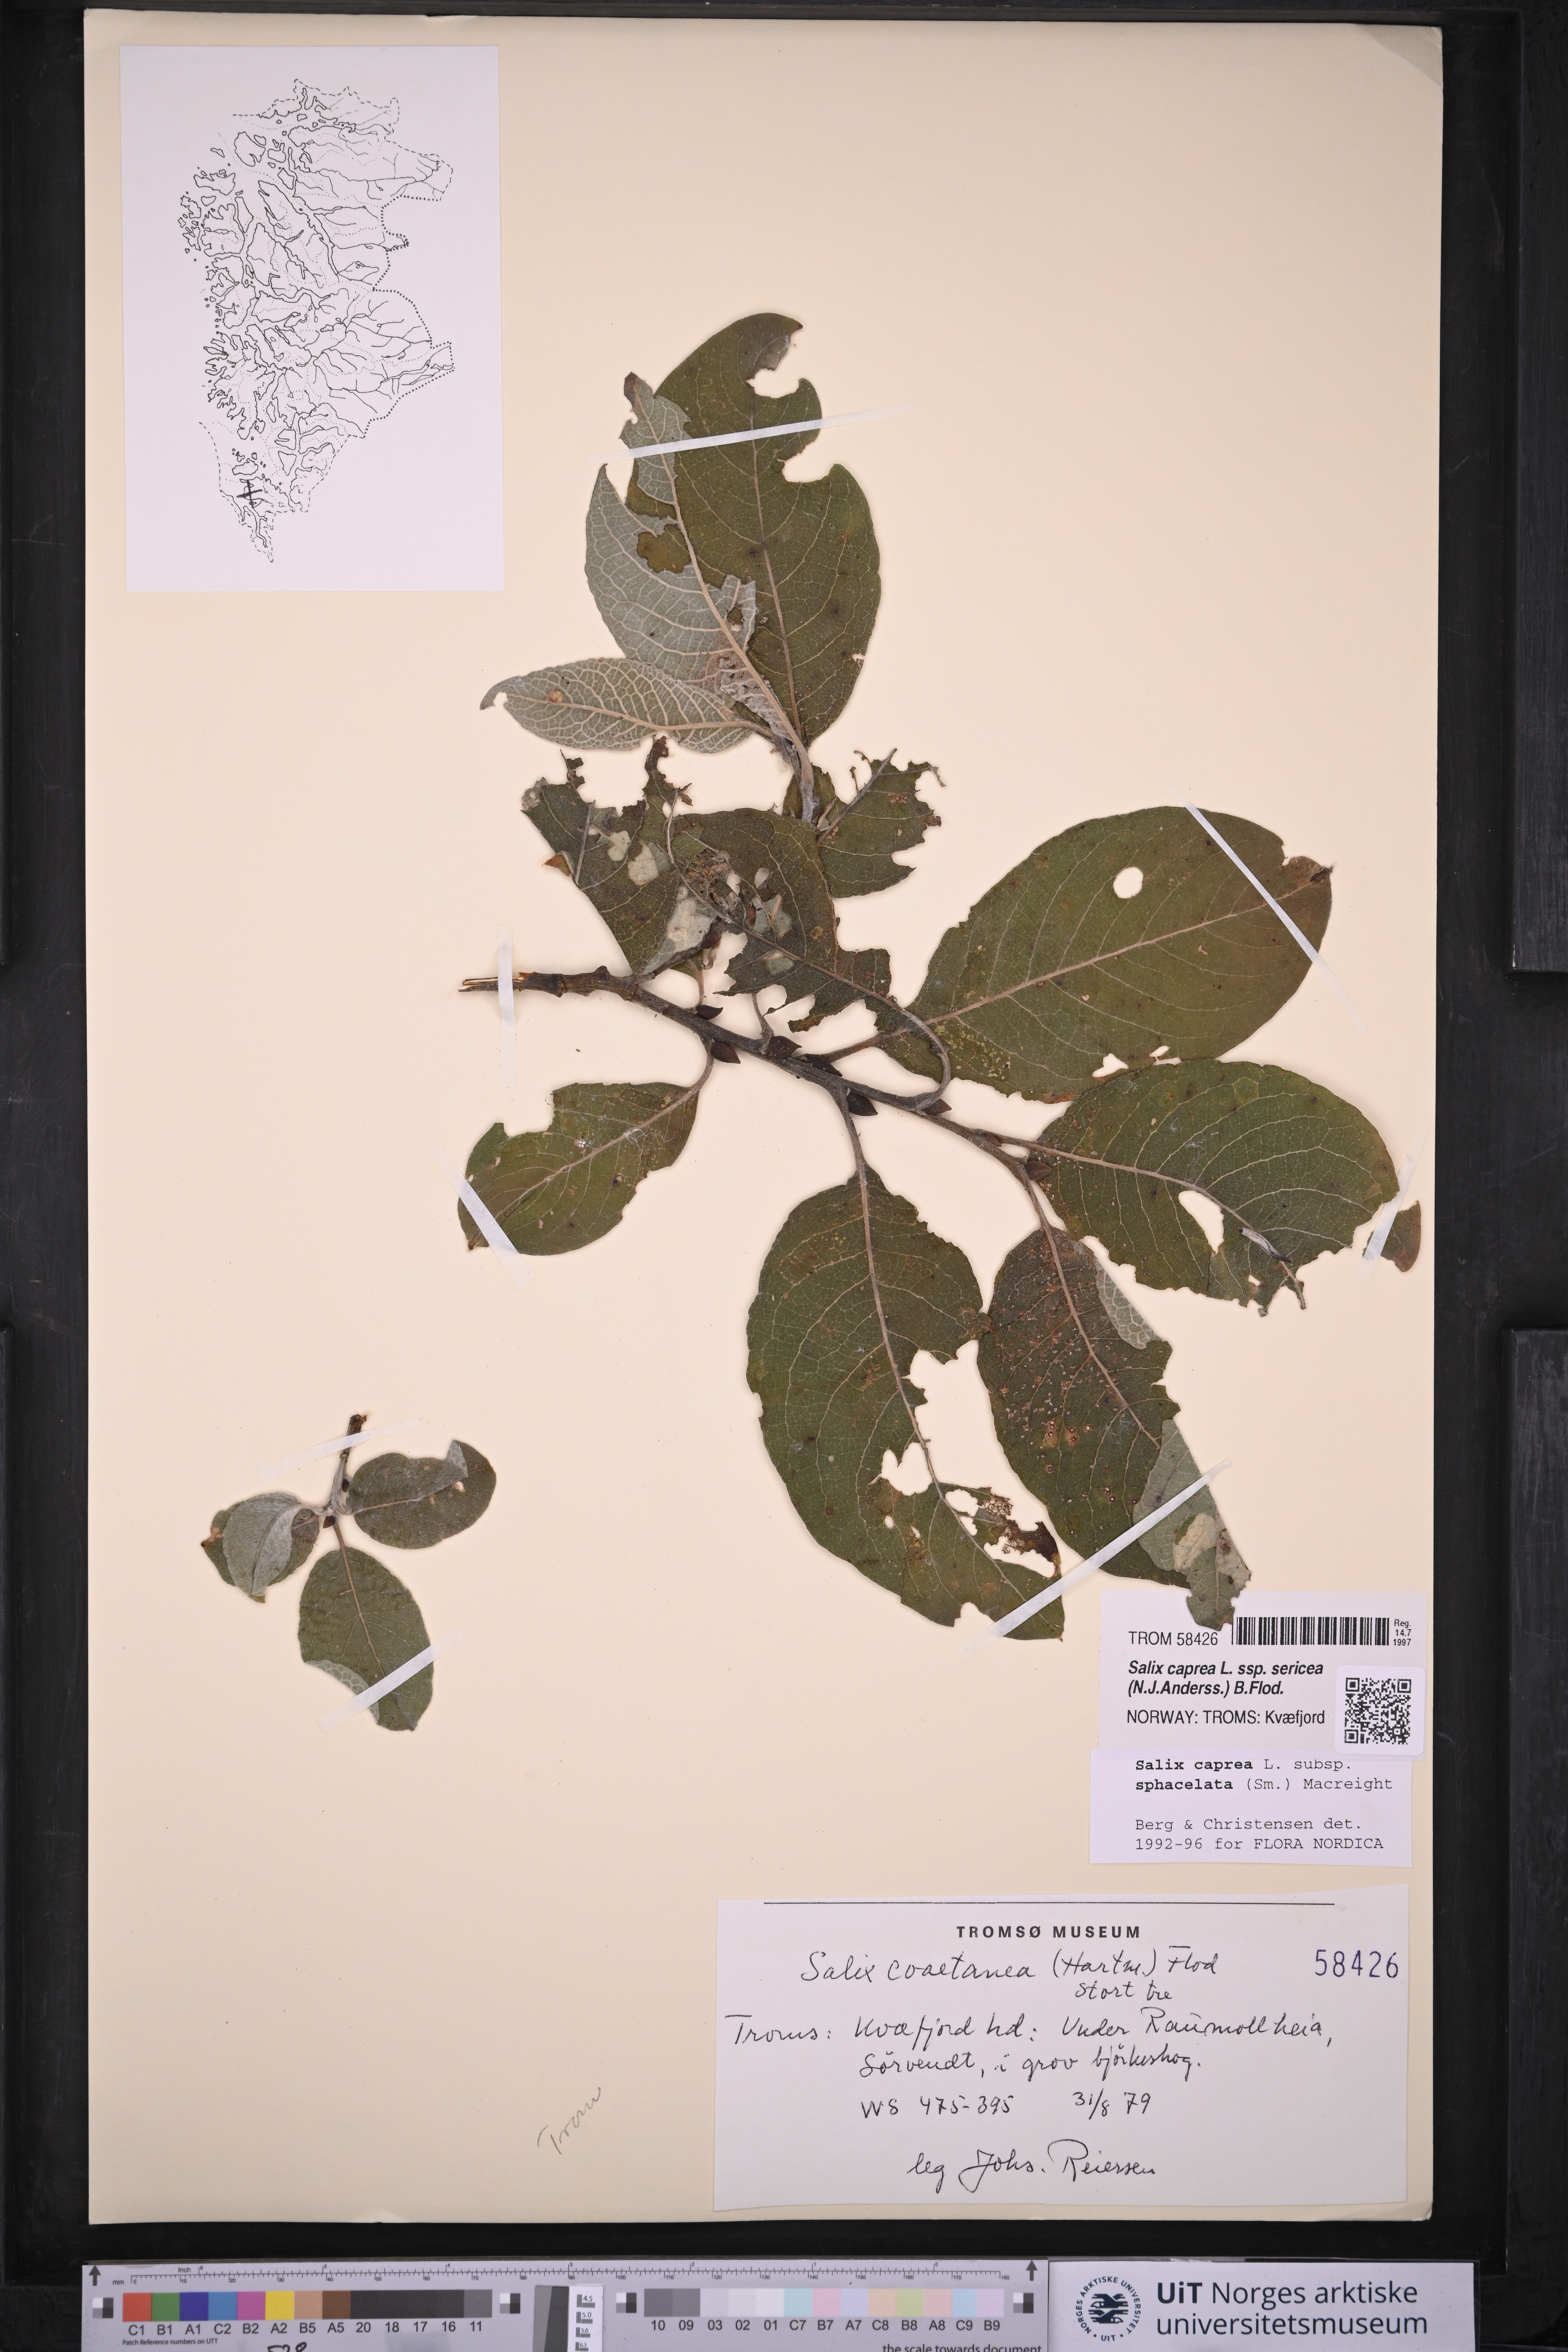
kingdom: Plantae
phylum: Tracheophyta
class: Magnoliopsida
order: Malpighiales
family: Salicaceae
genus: Salix
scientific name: Salix caprea
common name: Goat willow
